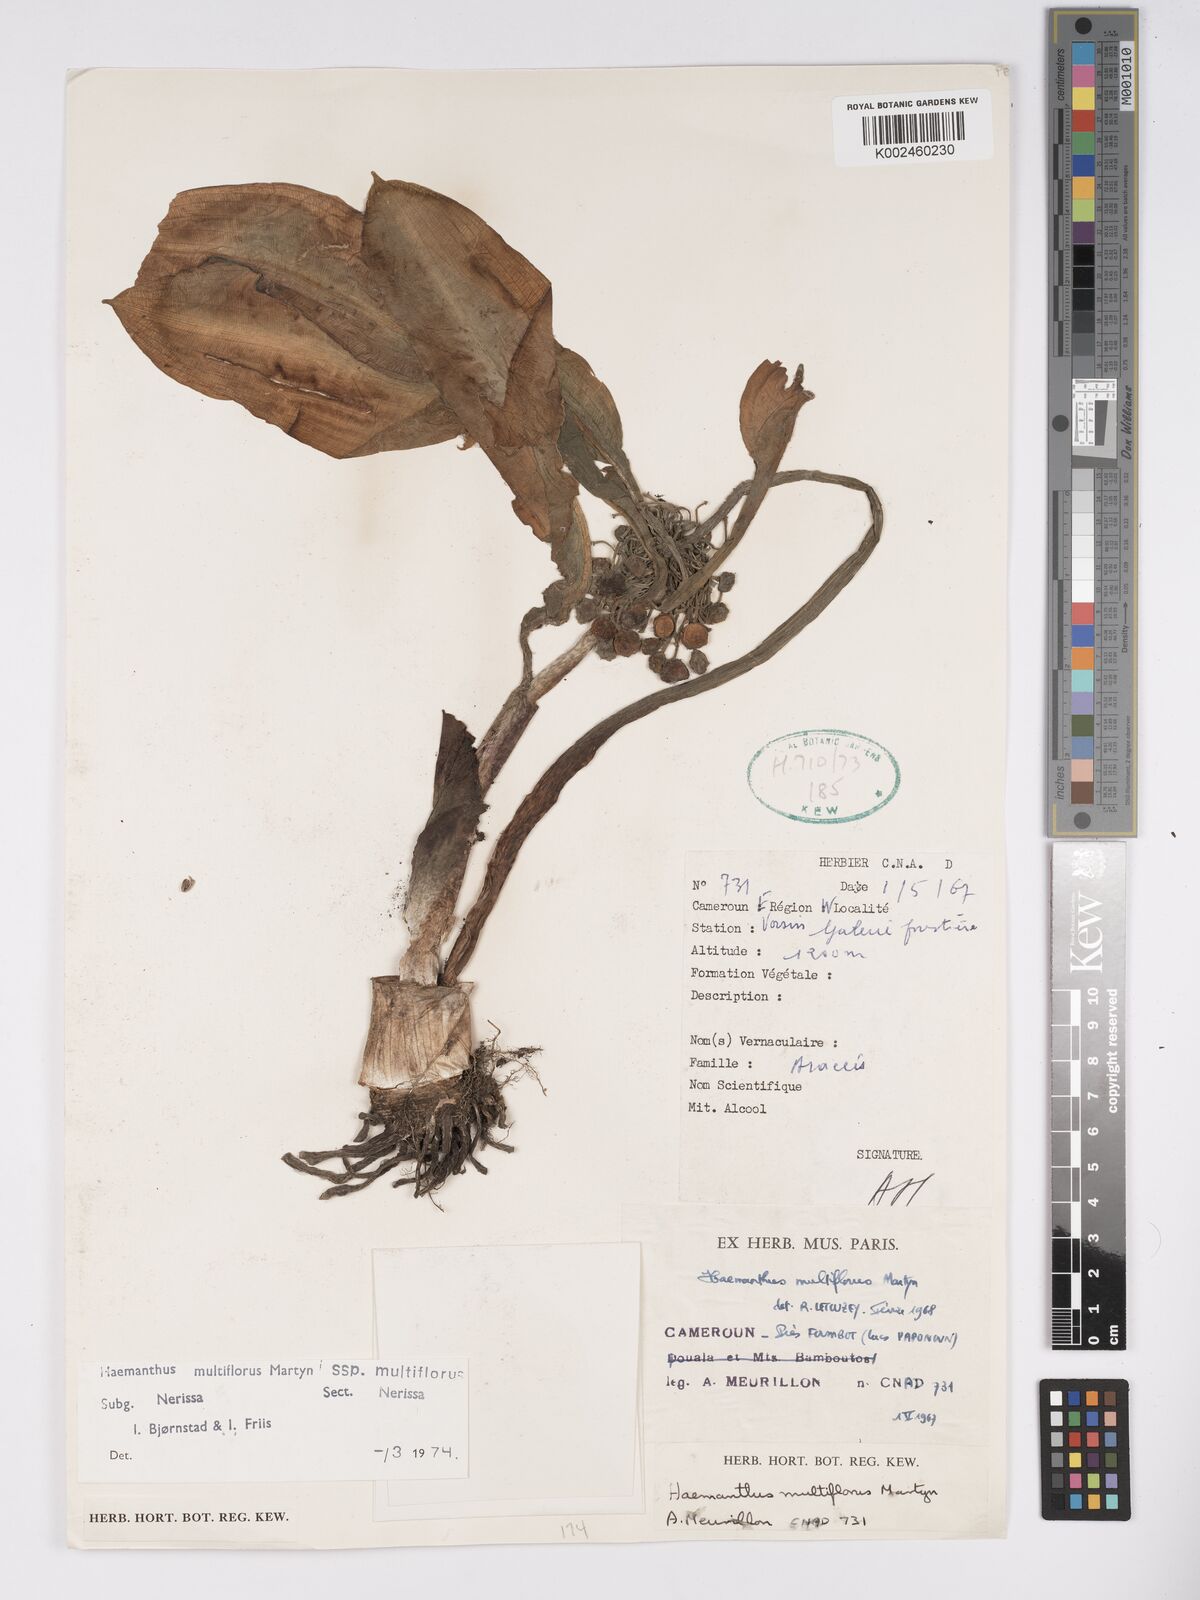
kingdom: Plantae
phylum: Tracheophyta
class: Liliopsida
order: Asparagales
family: Amaryllidaceae
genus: Scadoxus
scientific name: Scadoxus multiflorus
